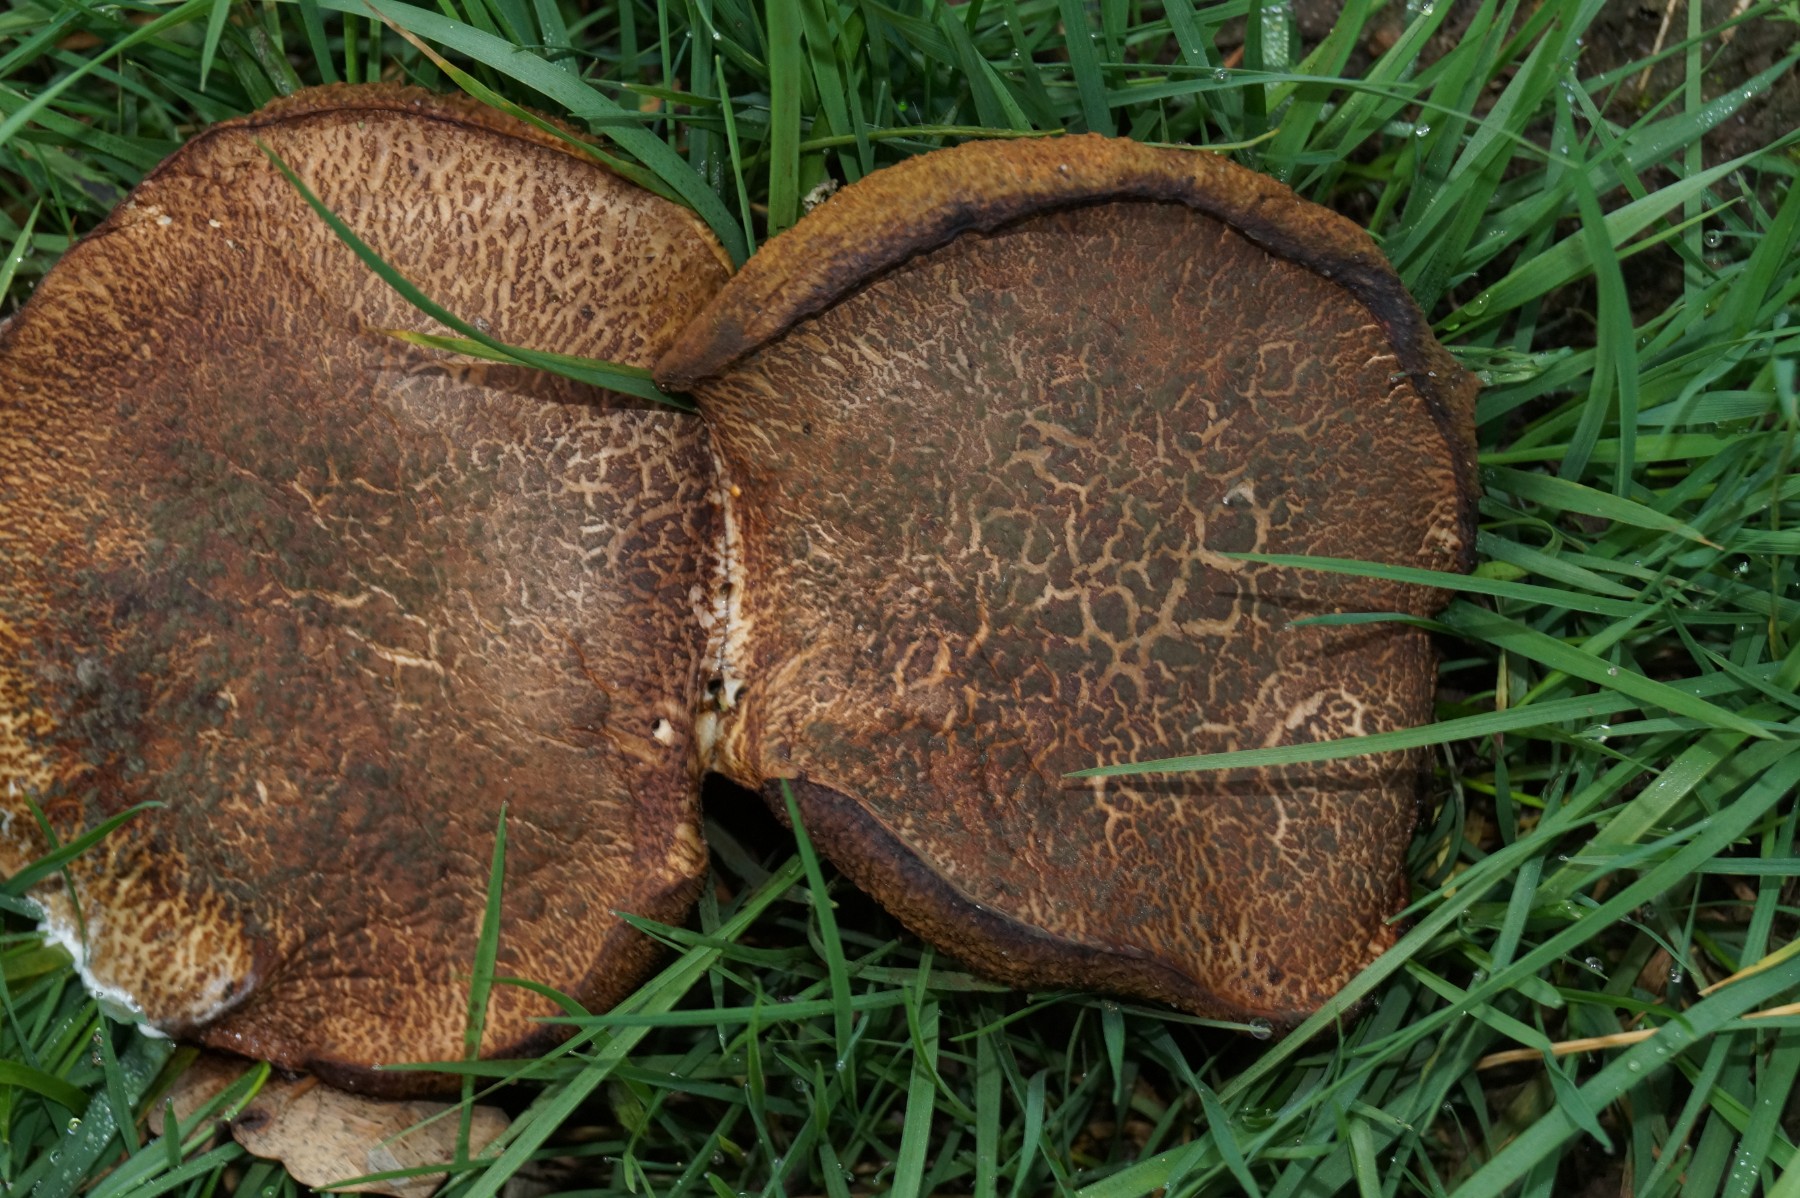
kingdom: Fungi
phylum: Basidiomycota
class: Agaricomycetes
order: Boletales
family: Boletaceae
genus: Xerocomellus
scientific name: Xerocomellus
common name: dværgrørhat
